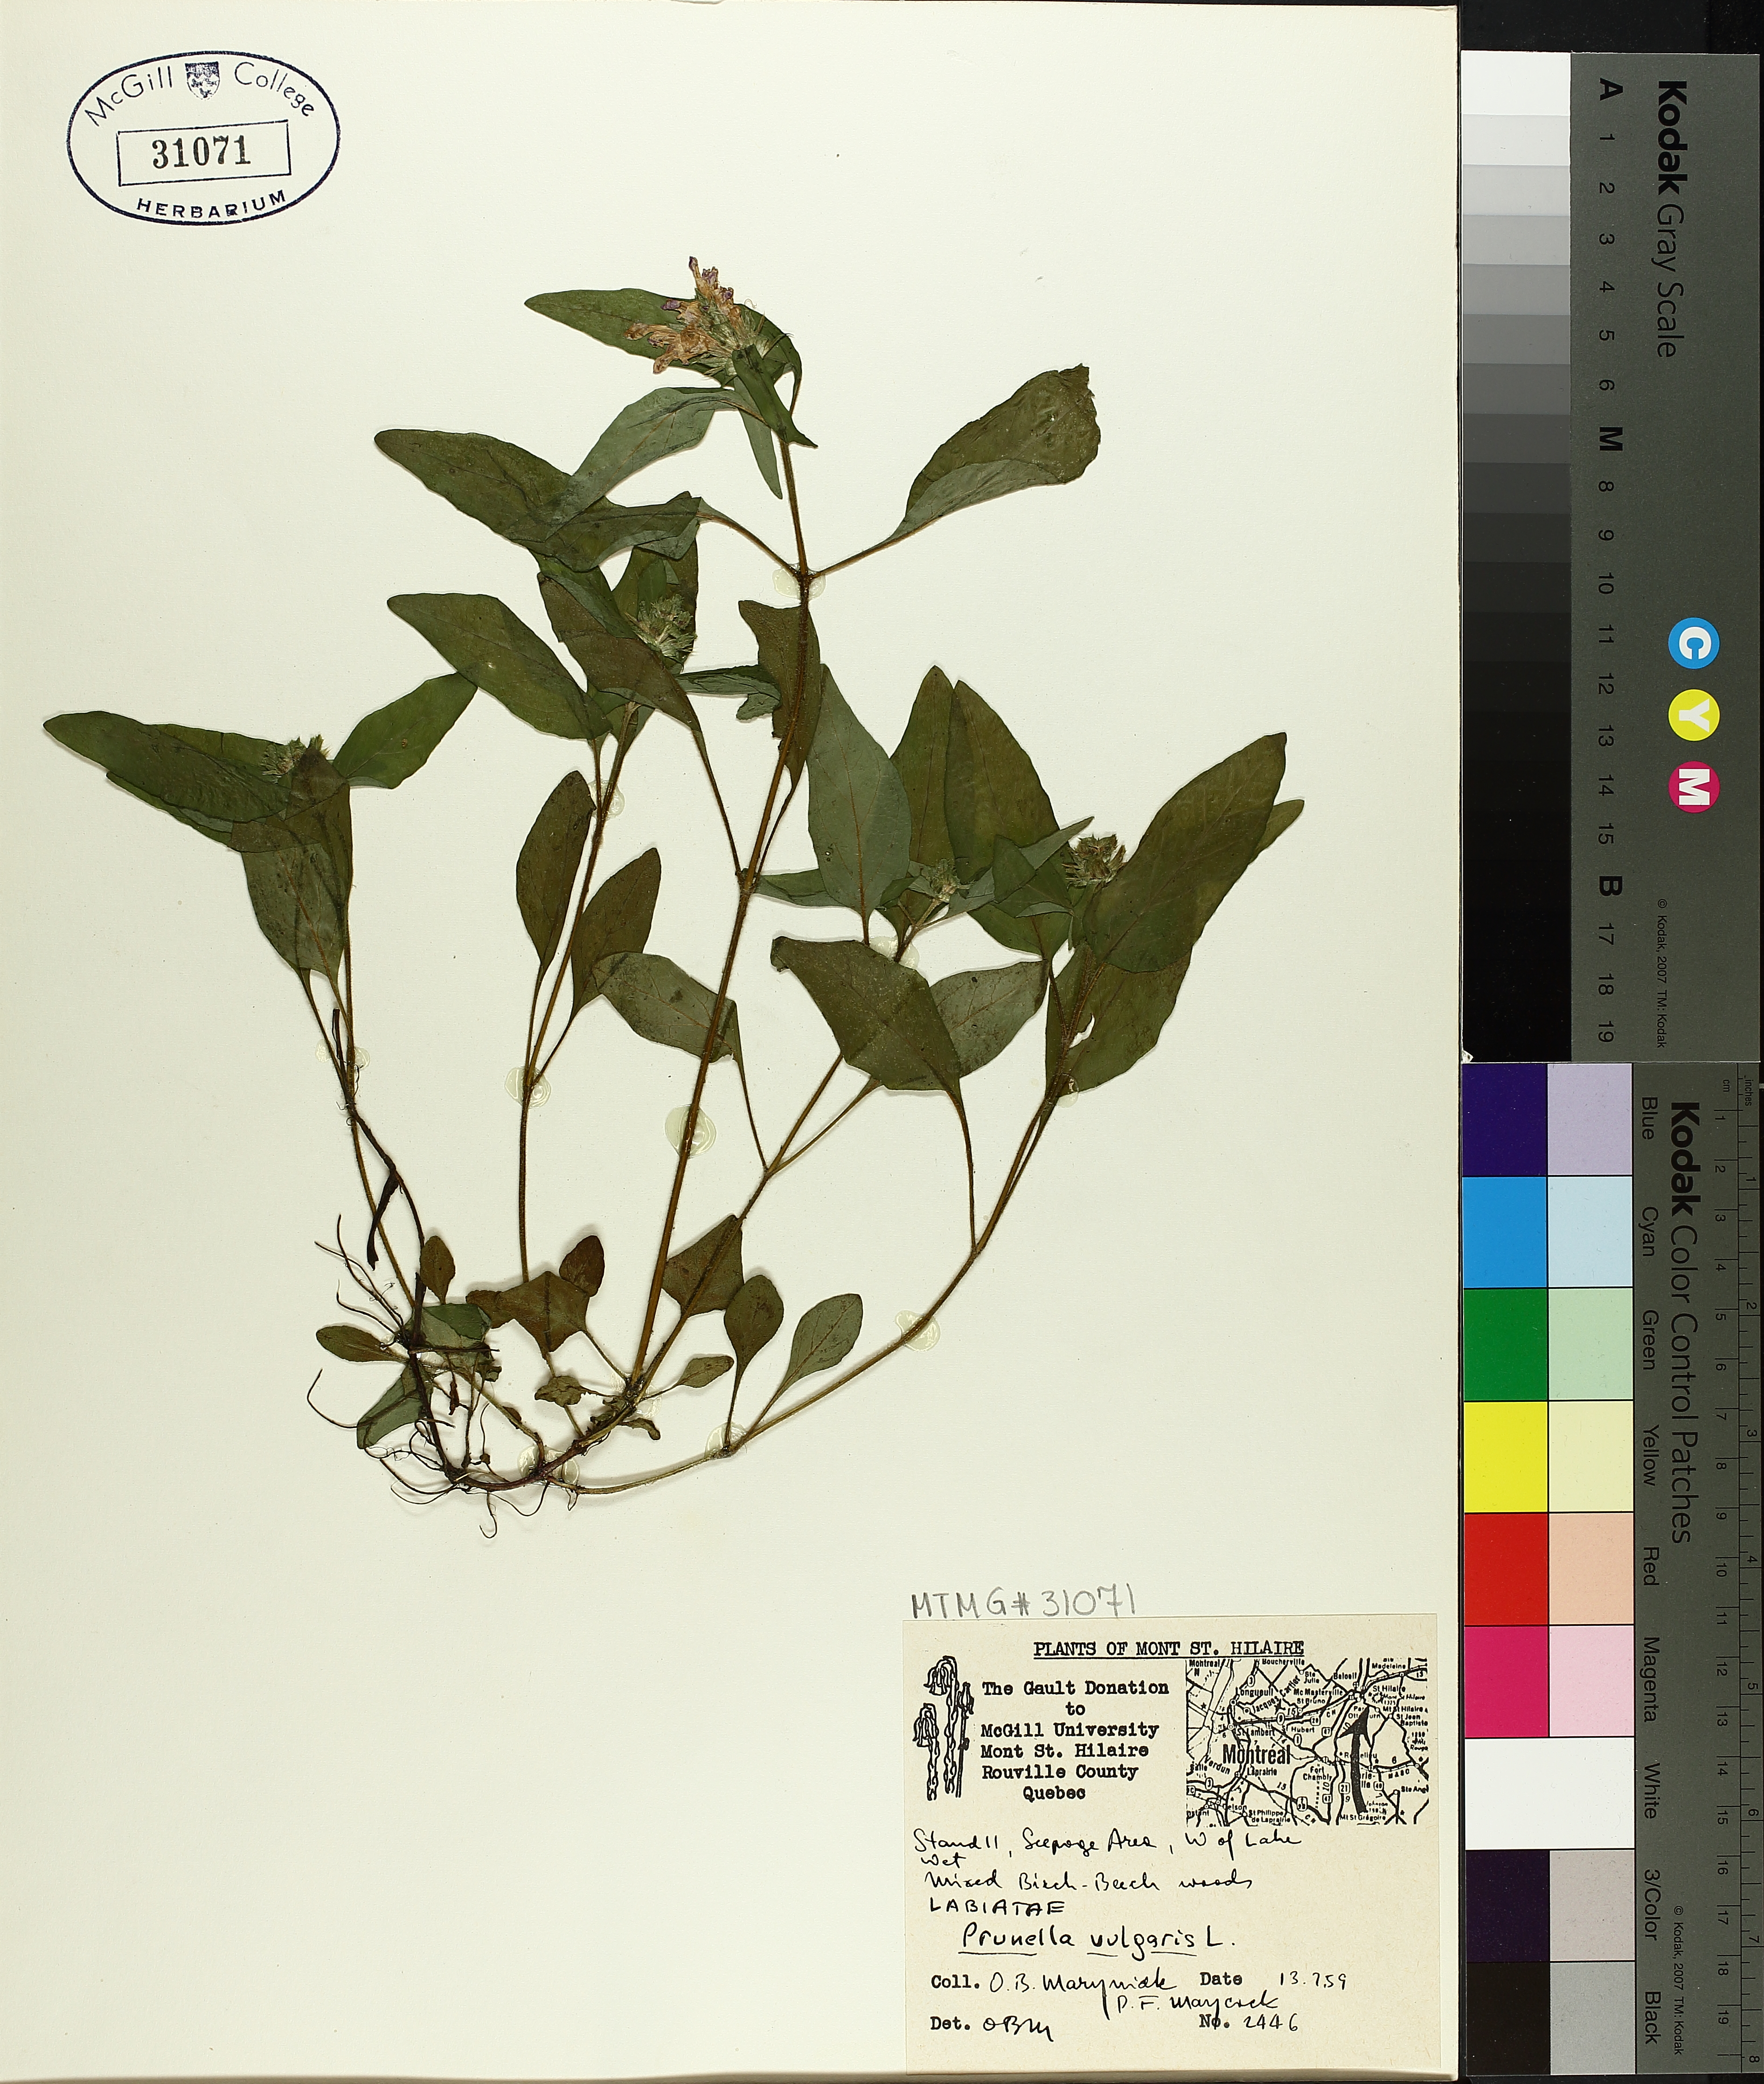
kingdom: Plantae
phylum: Tracheophyta
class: Magnoliopsida
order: Lamiales
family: Lamiaceae
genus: Prunella
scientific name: Prunella vulgaris
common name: Heal-all
